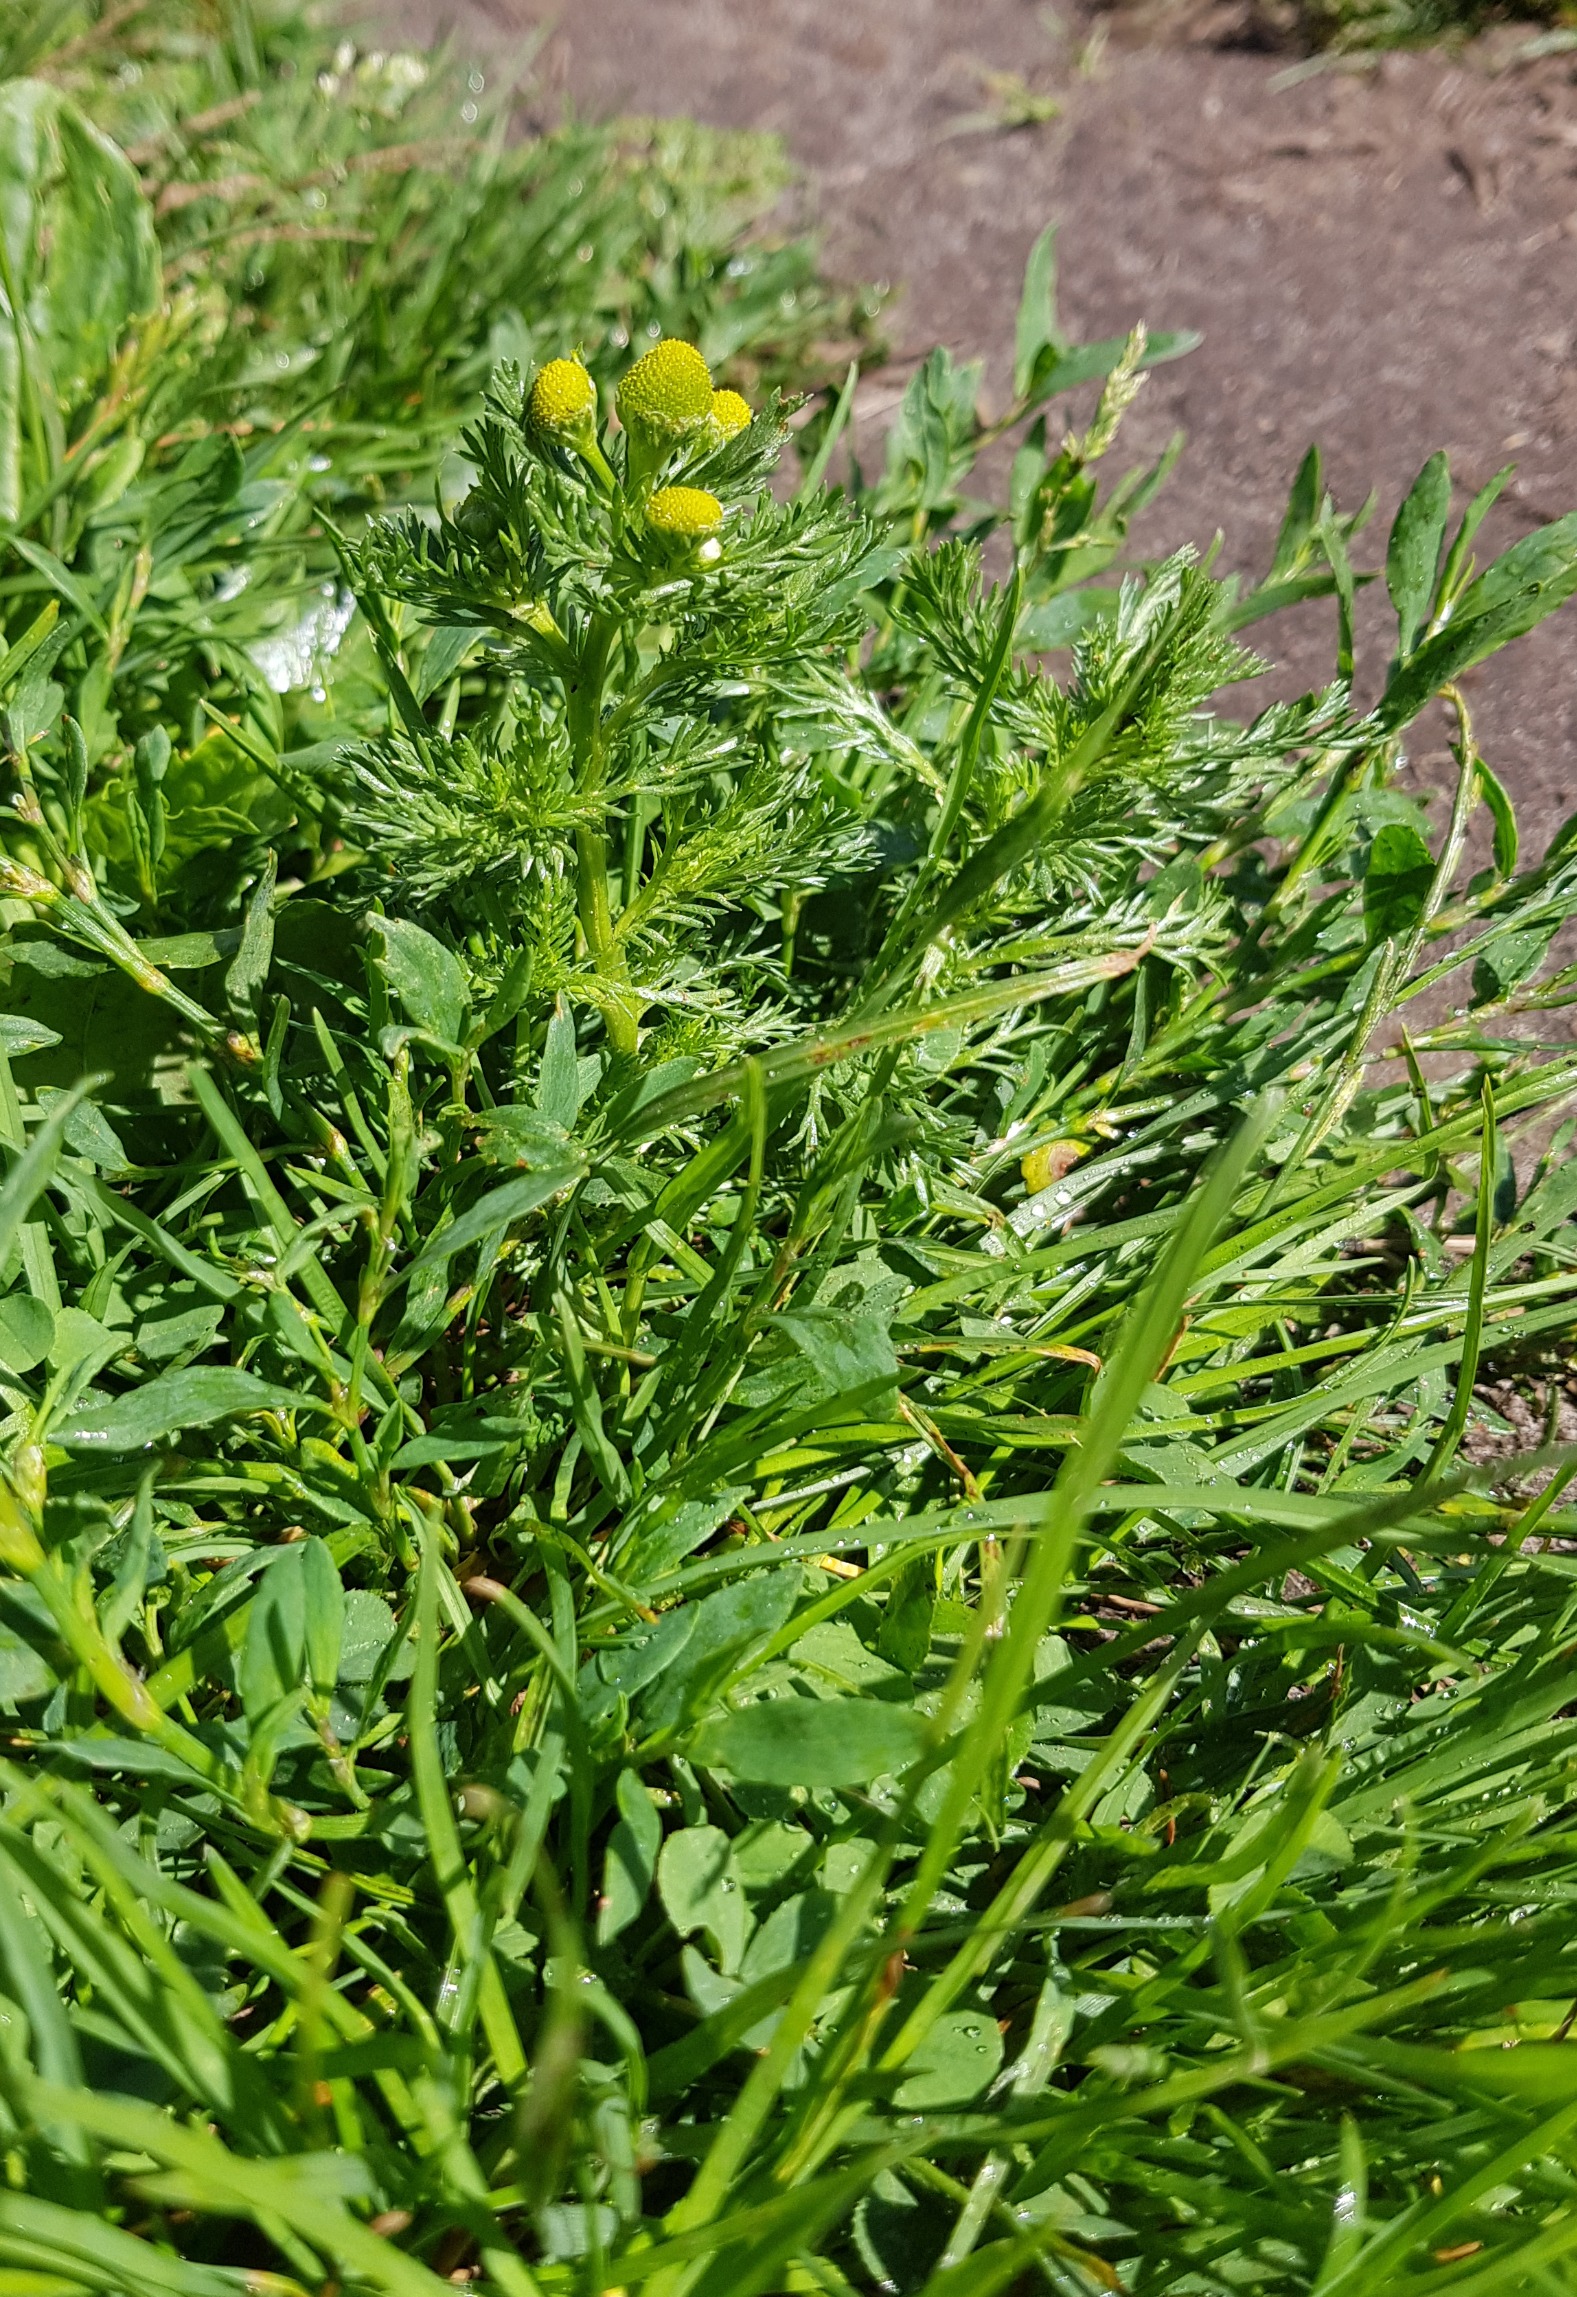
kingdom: Plantae
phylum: Tracheophyta
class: Magnoliopsida
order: Asterales
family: Asteraceae
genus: Matricaria
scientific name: Matricaria discoidea
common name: Skive-kamille
